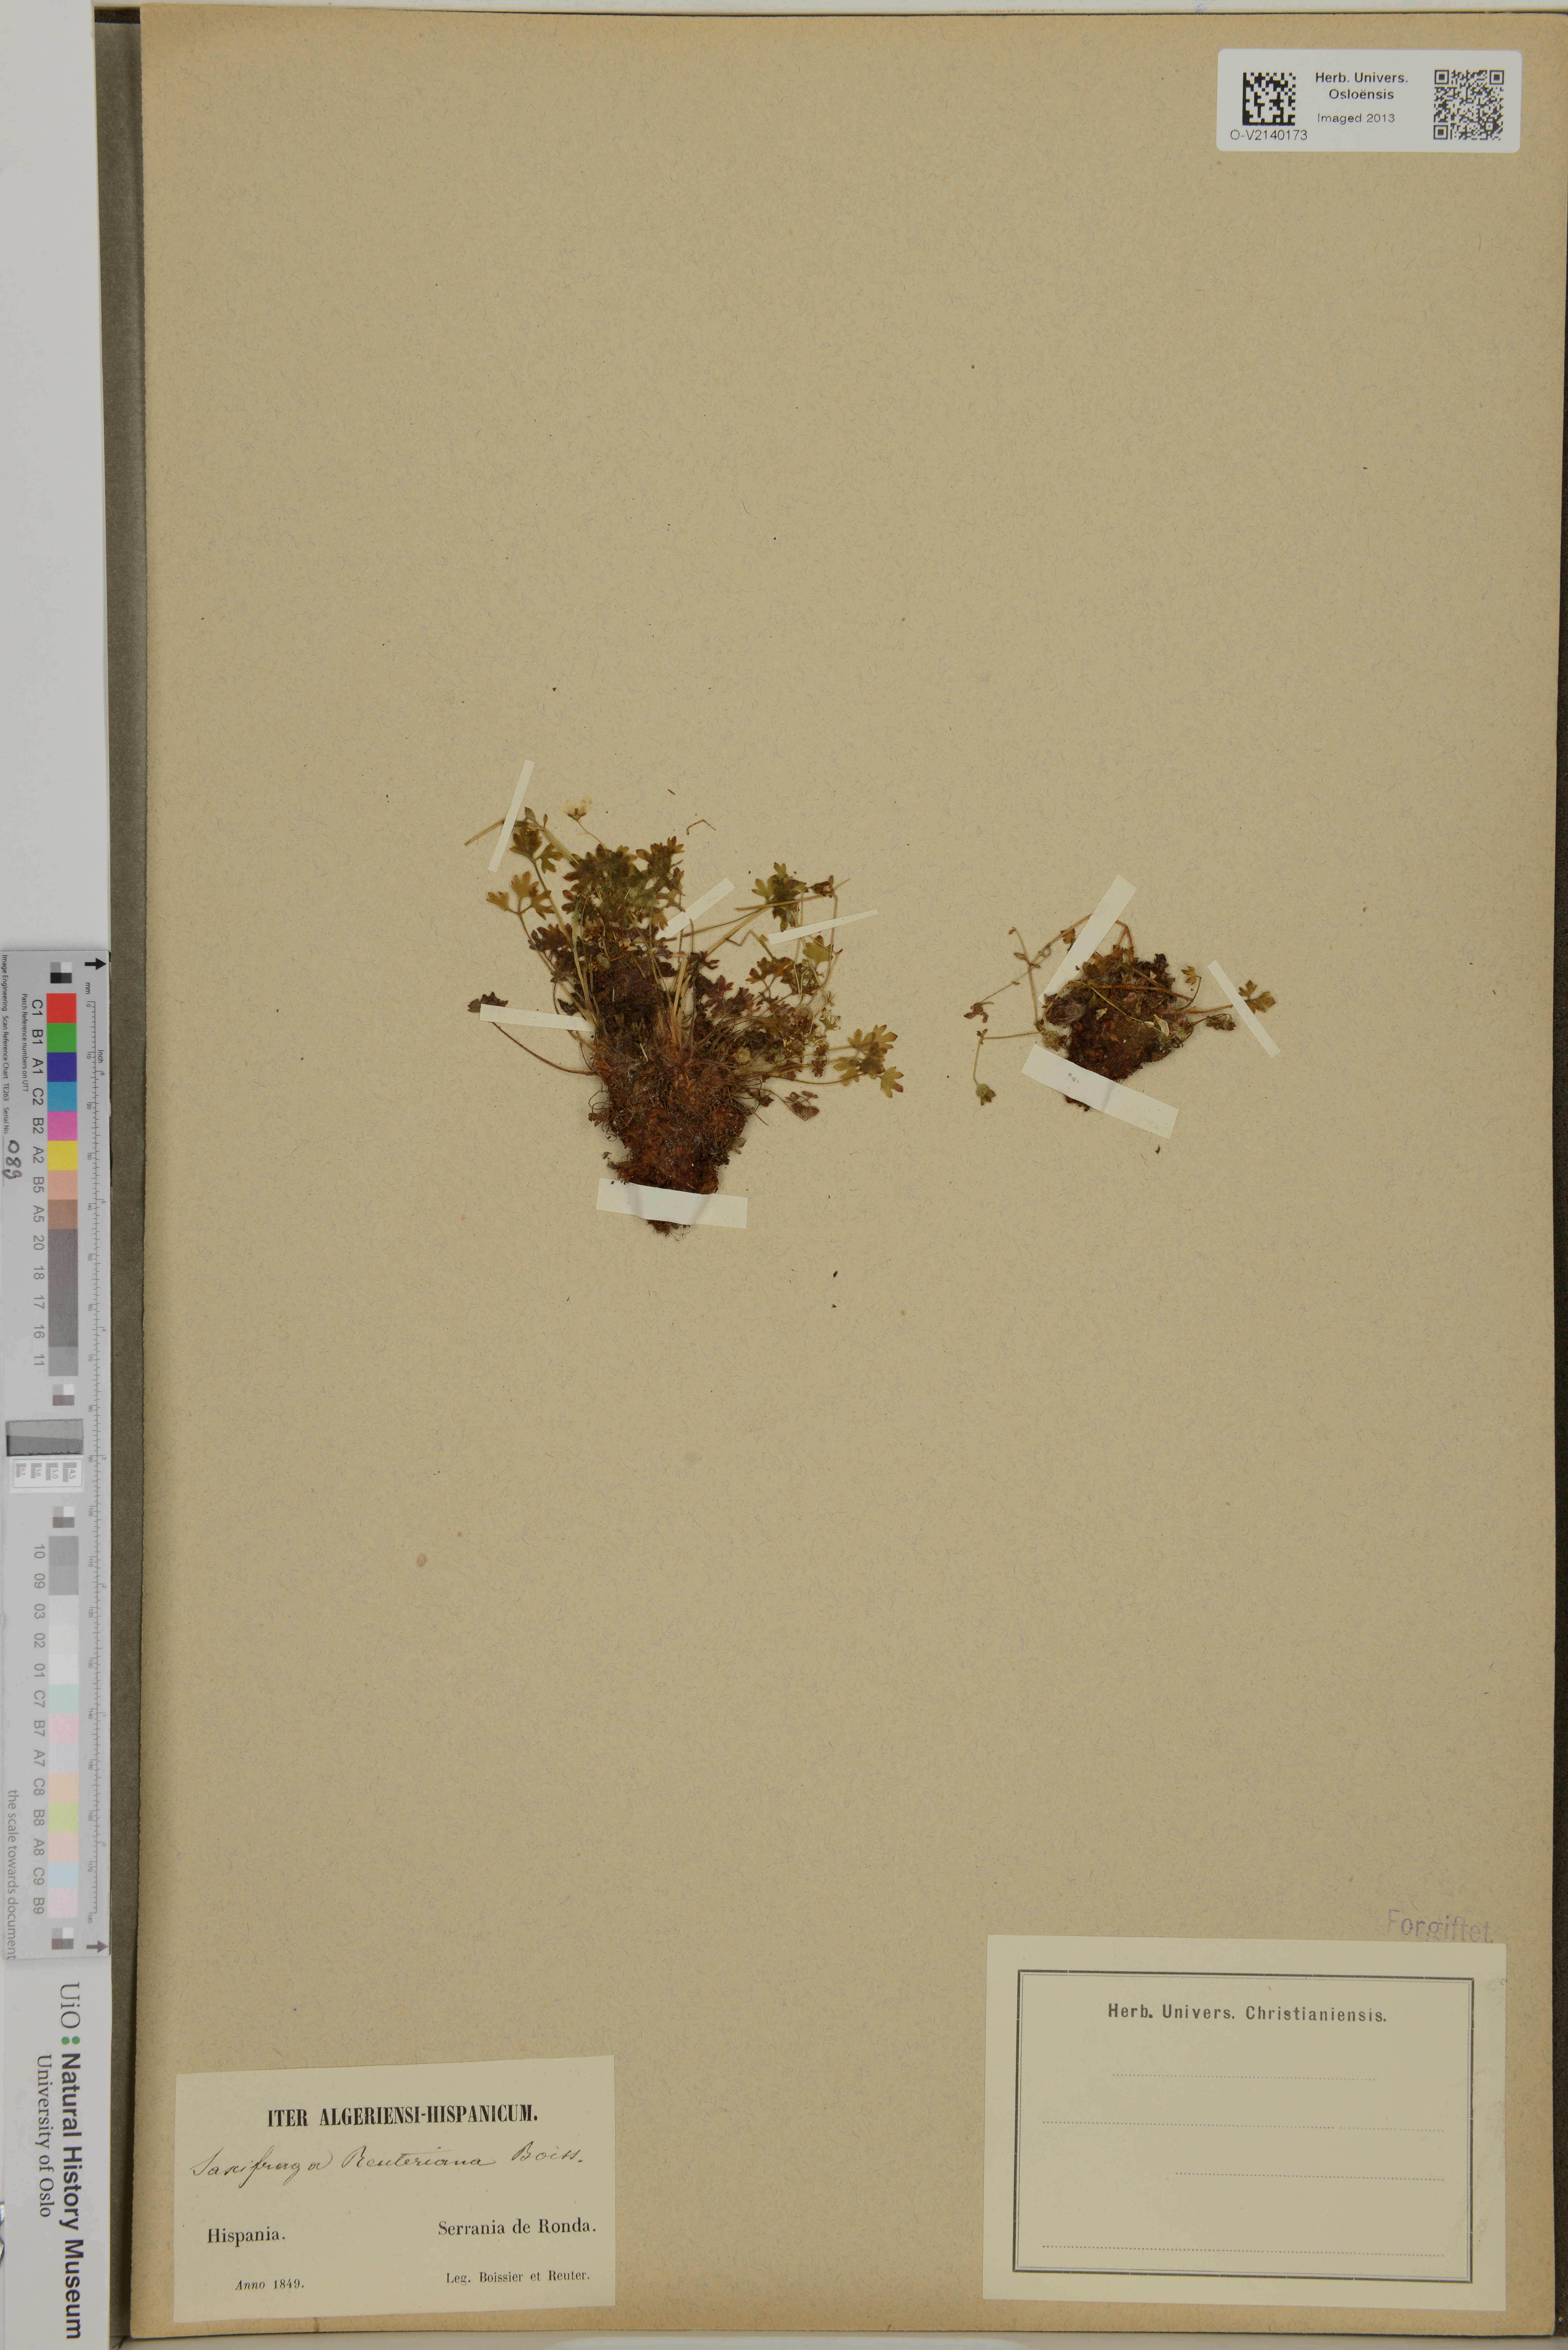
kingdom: Plantae
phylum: Tracheophyta
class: Magnoliopsida
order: Saxifragales
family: Saxifragaceae
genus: Saxifraga
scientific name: Saxifraga reuteriana
